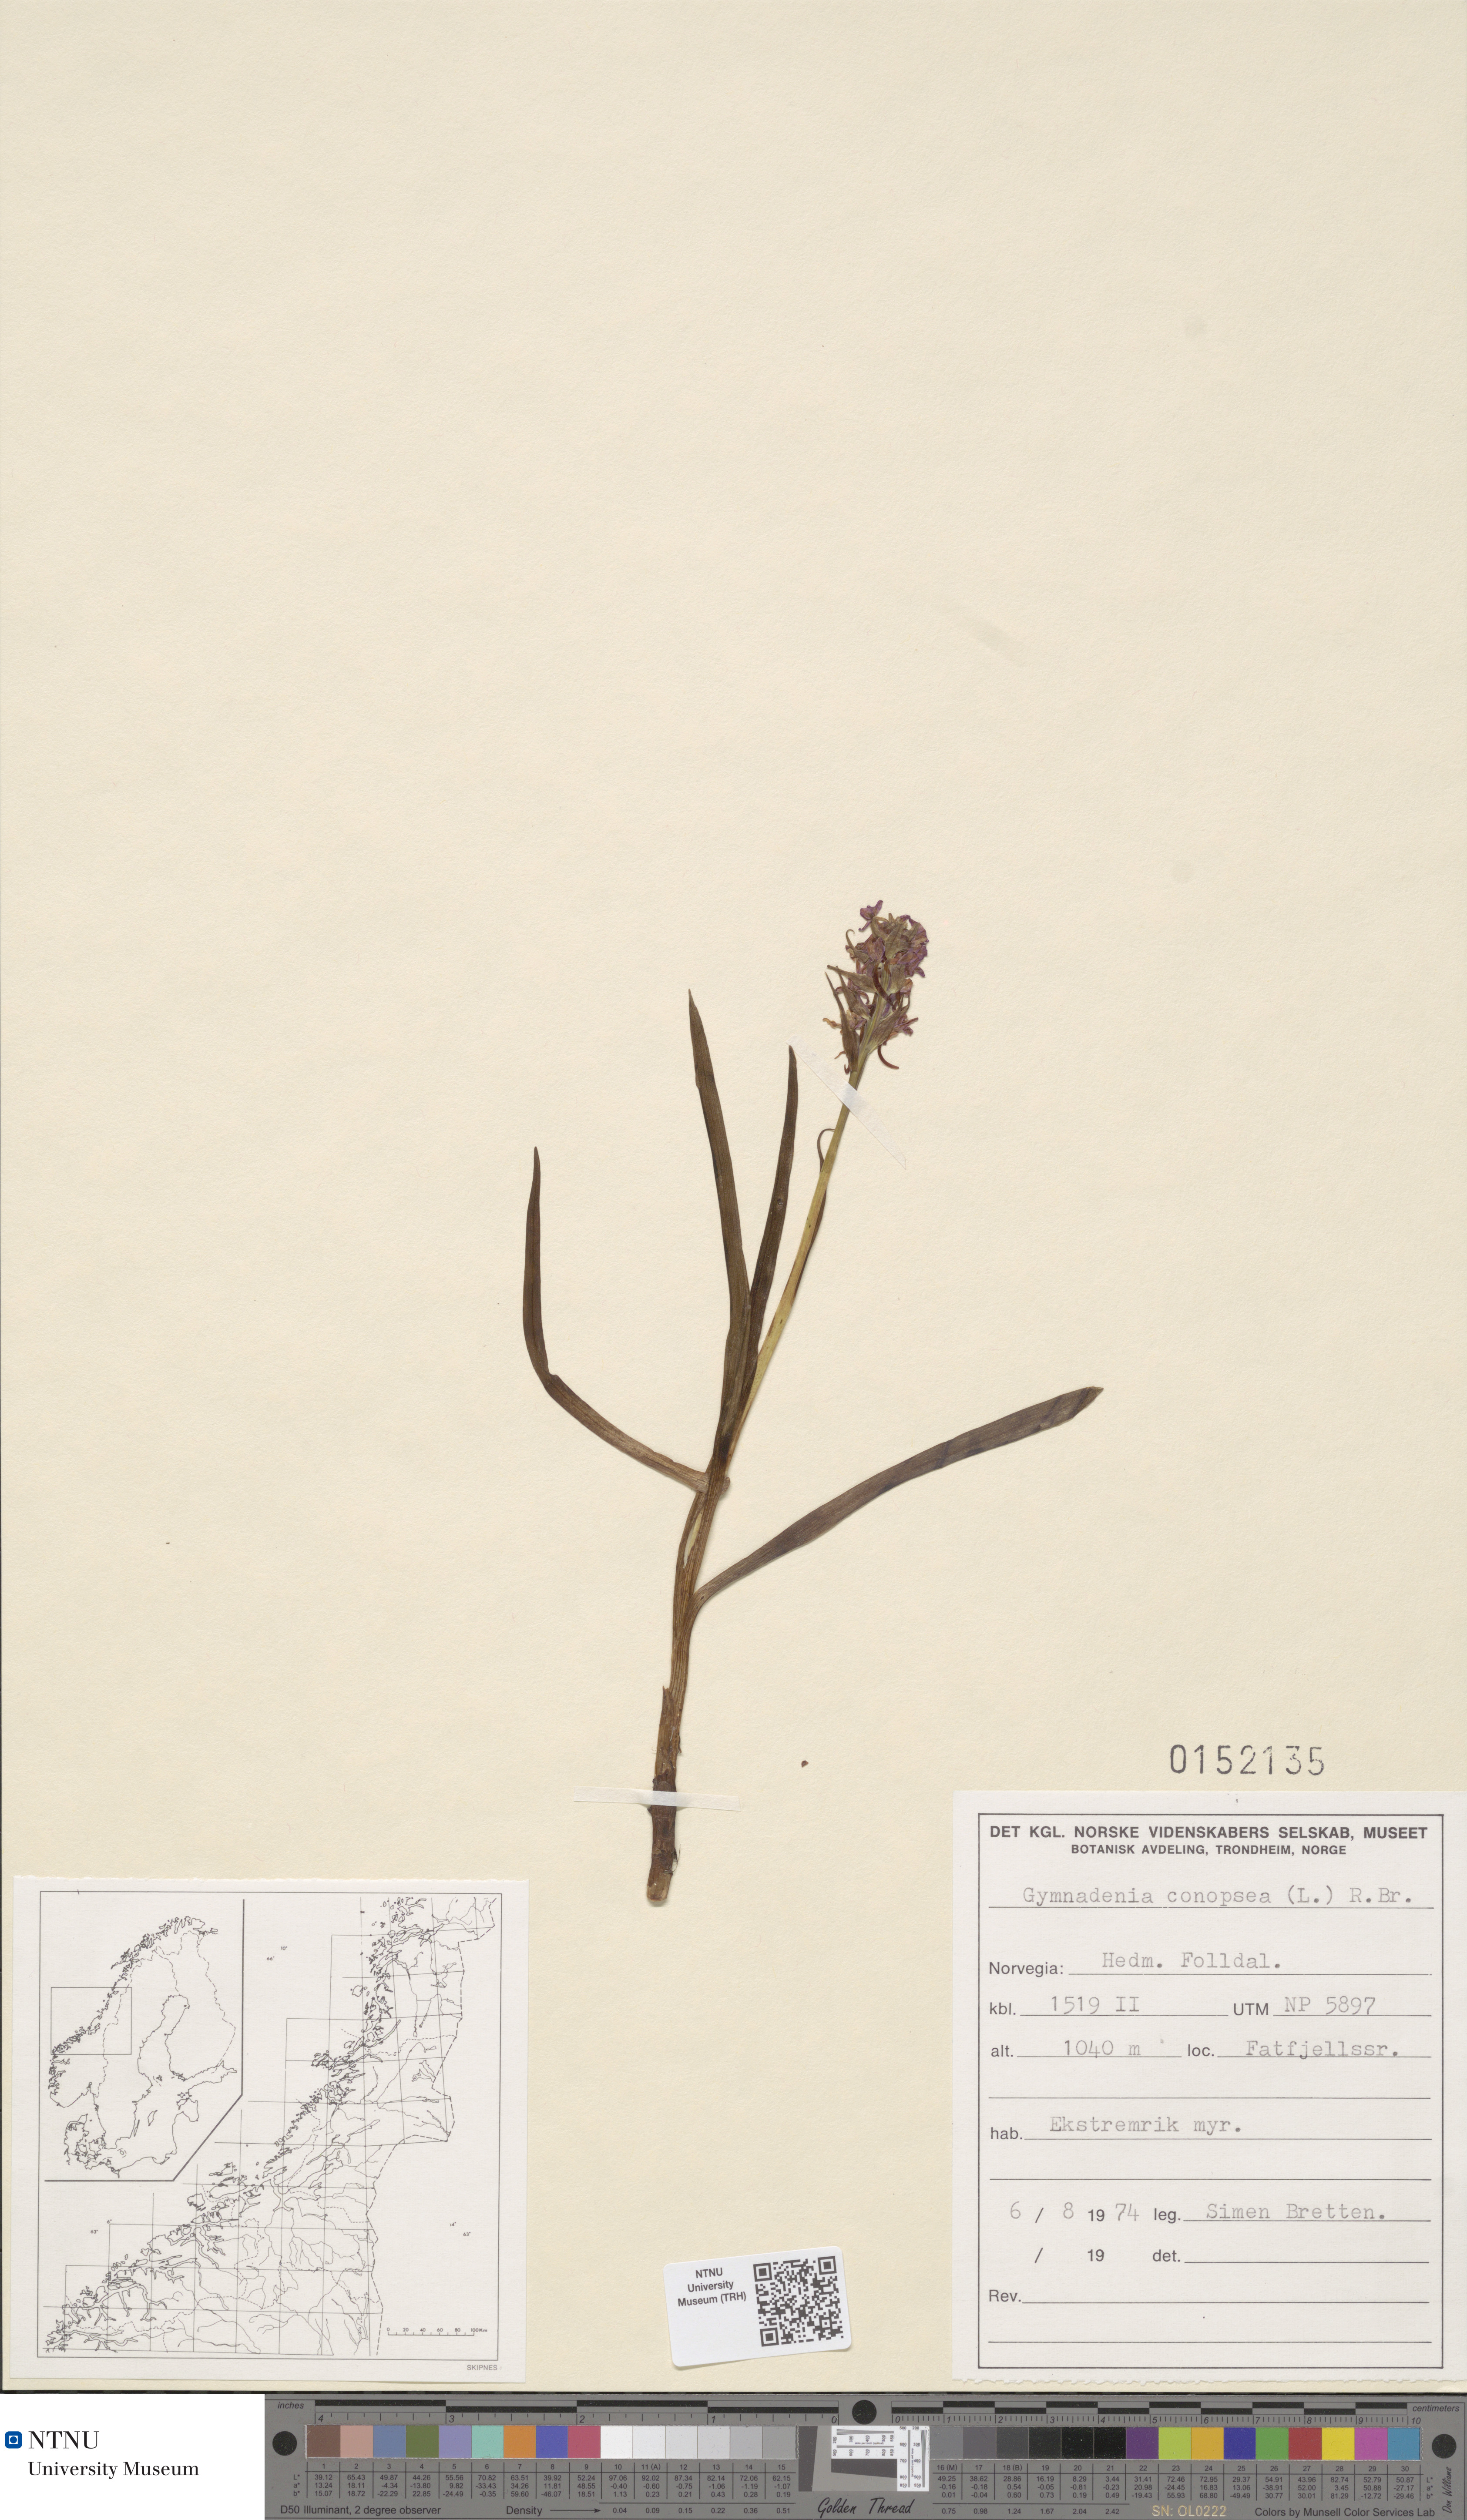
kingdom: Plantae
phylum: Tracheophyta
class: Liliopsida
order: Asparagales
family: Orchidaceae
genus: Gymnadenia
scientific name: Gymnadenia conopsea
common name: Fragrant orchid
